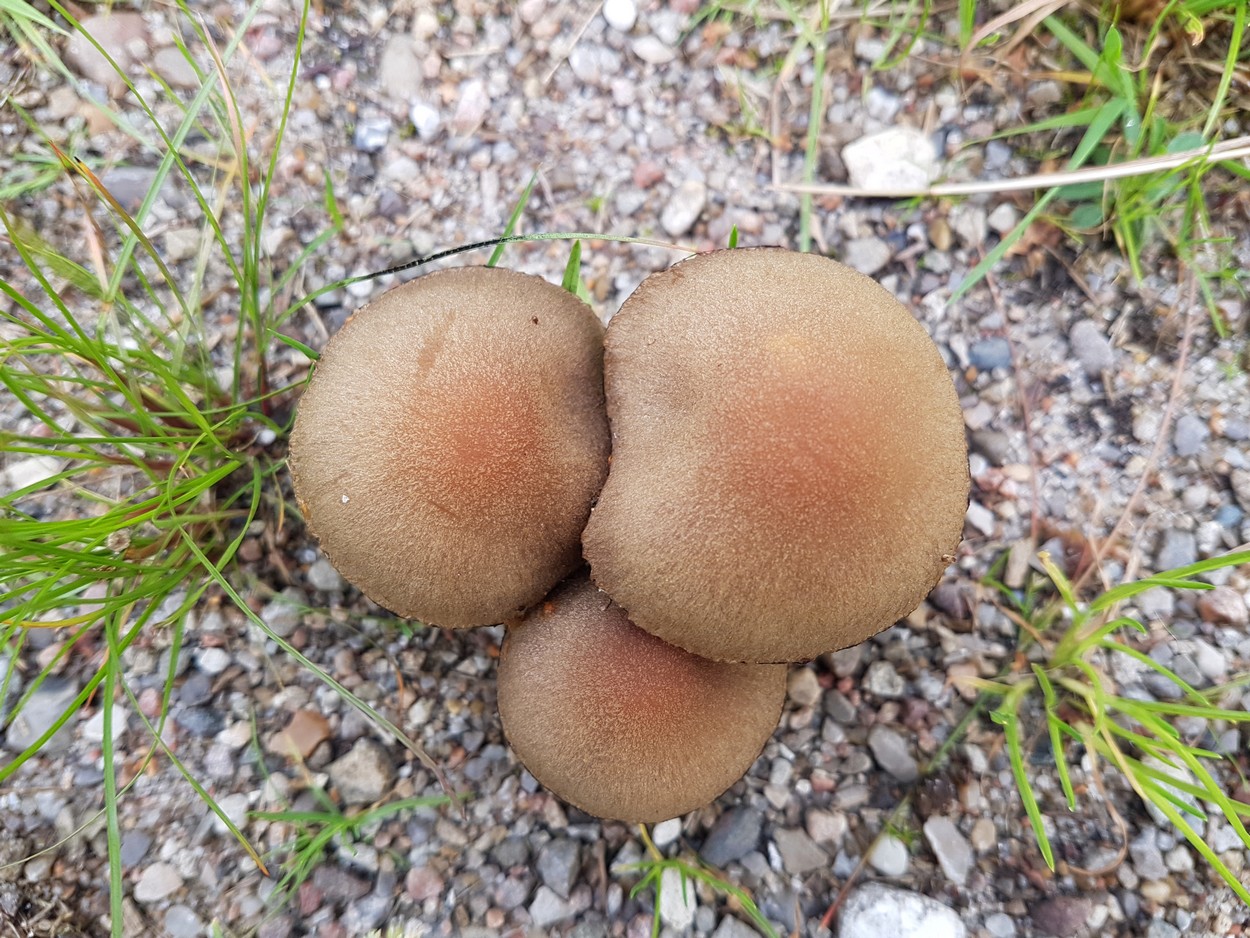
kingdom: Fungi
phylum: Basidiomycota
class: Agaricomycetes
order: Agaricales
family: Psathyrellaceae
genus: Lacrymaria
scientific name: Lacrymaria lacrymabunda
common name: grædende mørkhat
